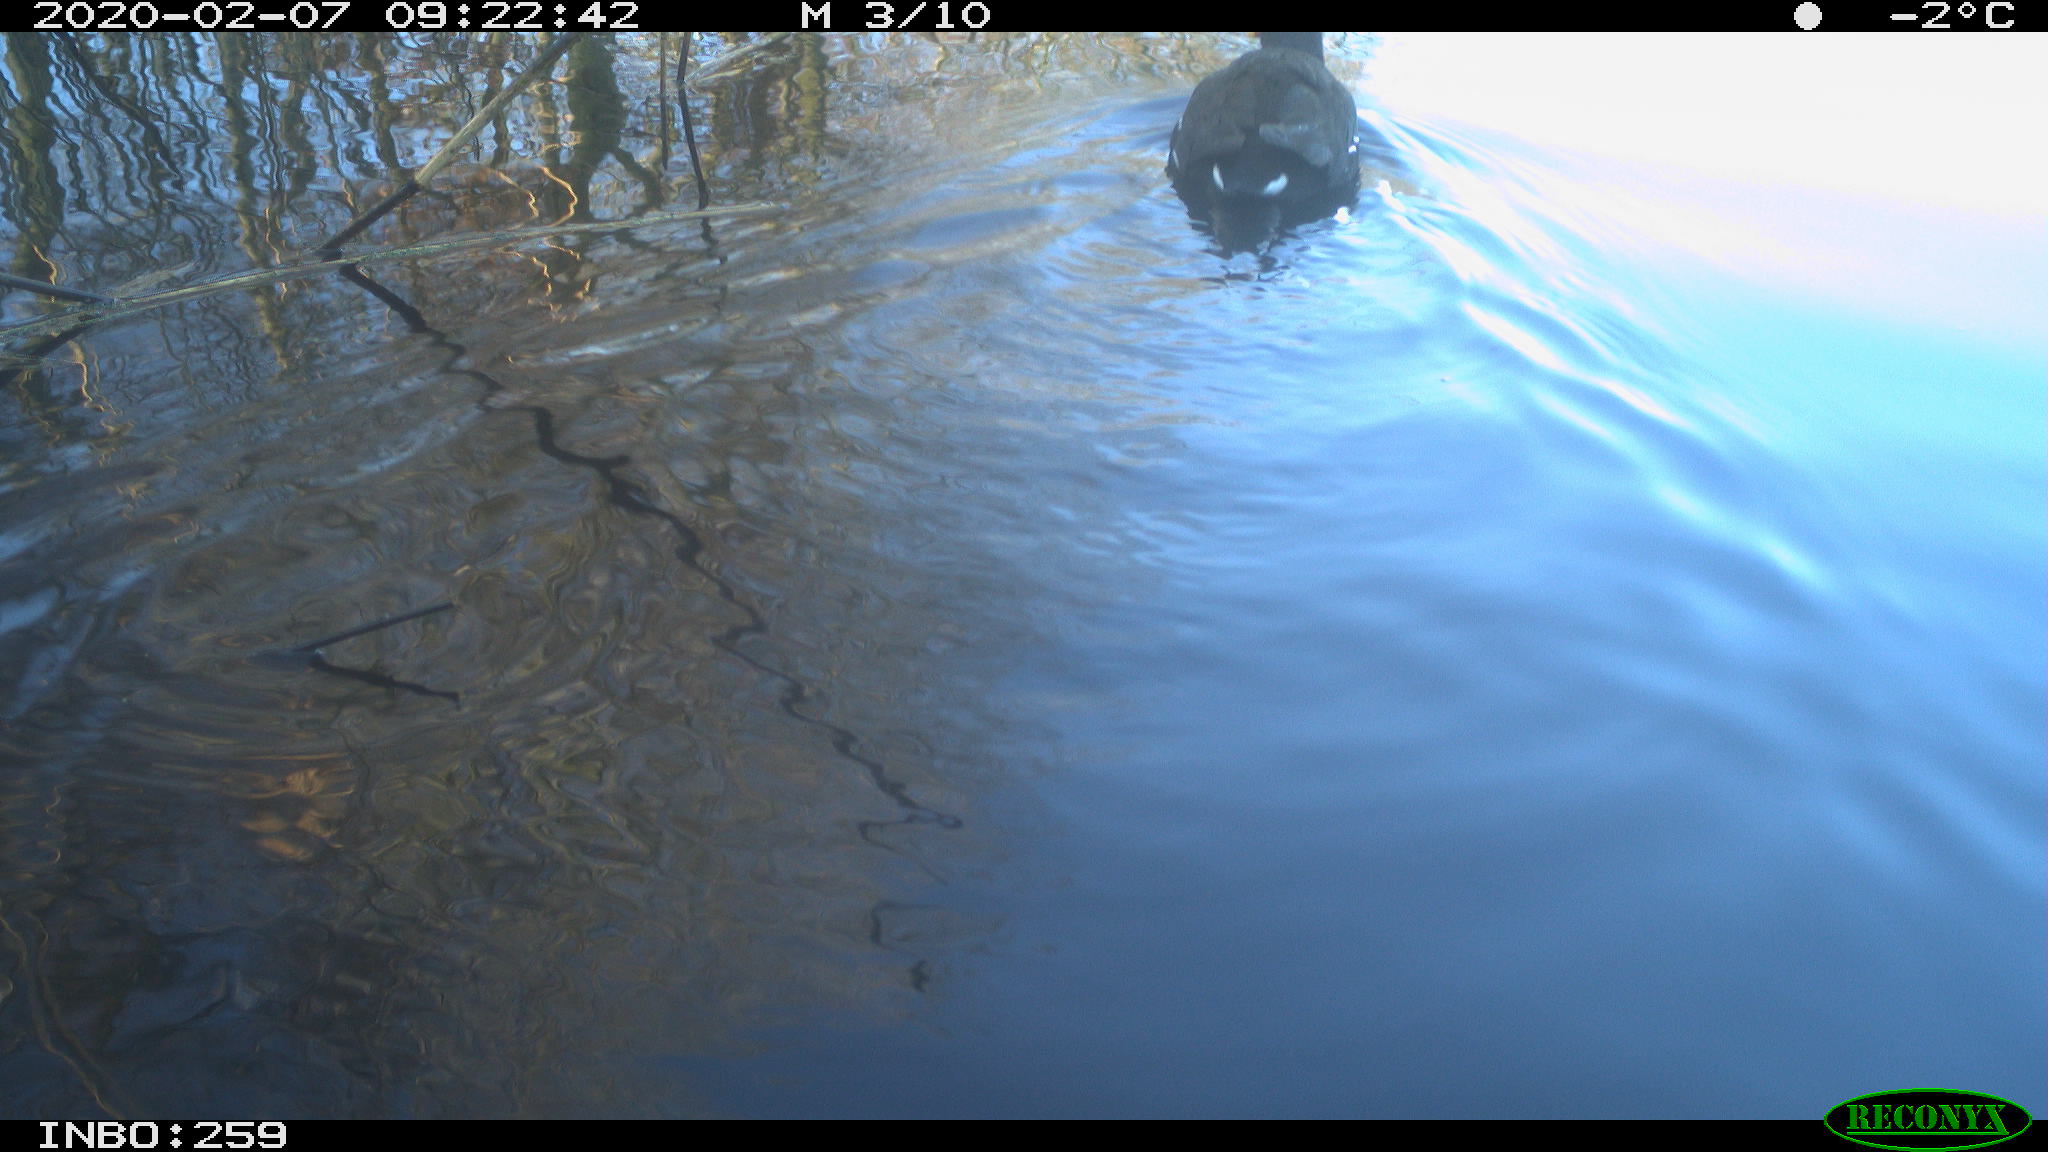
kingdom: Animalia
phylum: Chordata
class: Aves
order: Gruiformes
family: Rallidae
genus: Gallinula
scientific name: Gallinula chloropus
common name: Common moorhen
